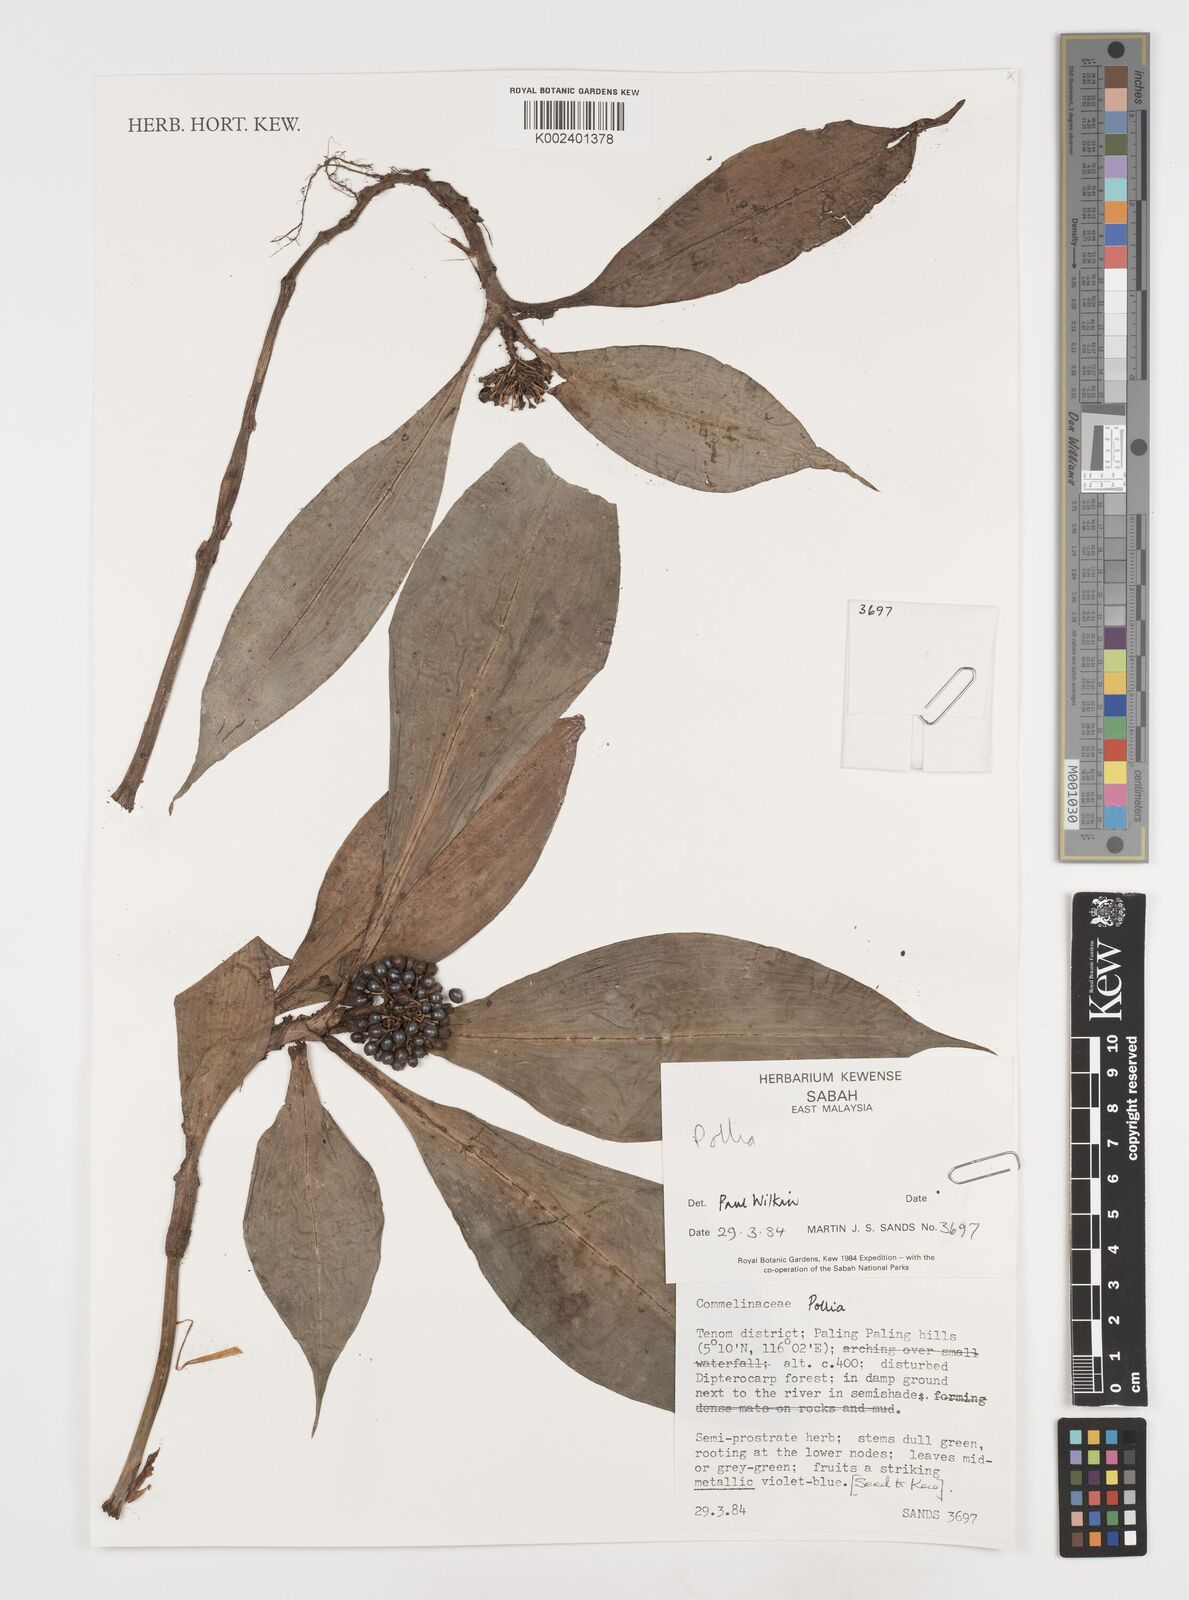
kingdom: Plantae
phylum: Tracheophyta
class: Liliopsida
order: Commelinales
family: Commelinaceae
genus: Pollia
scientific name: Pollia
